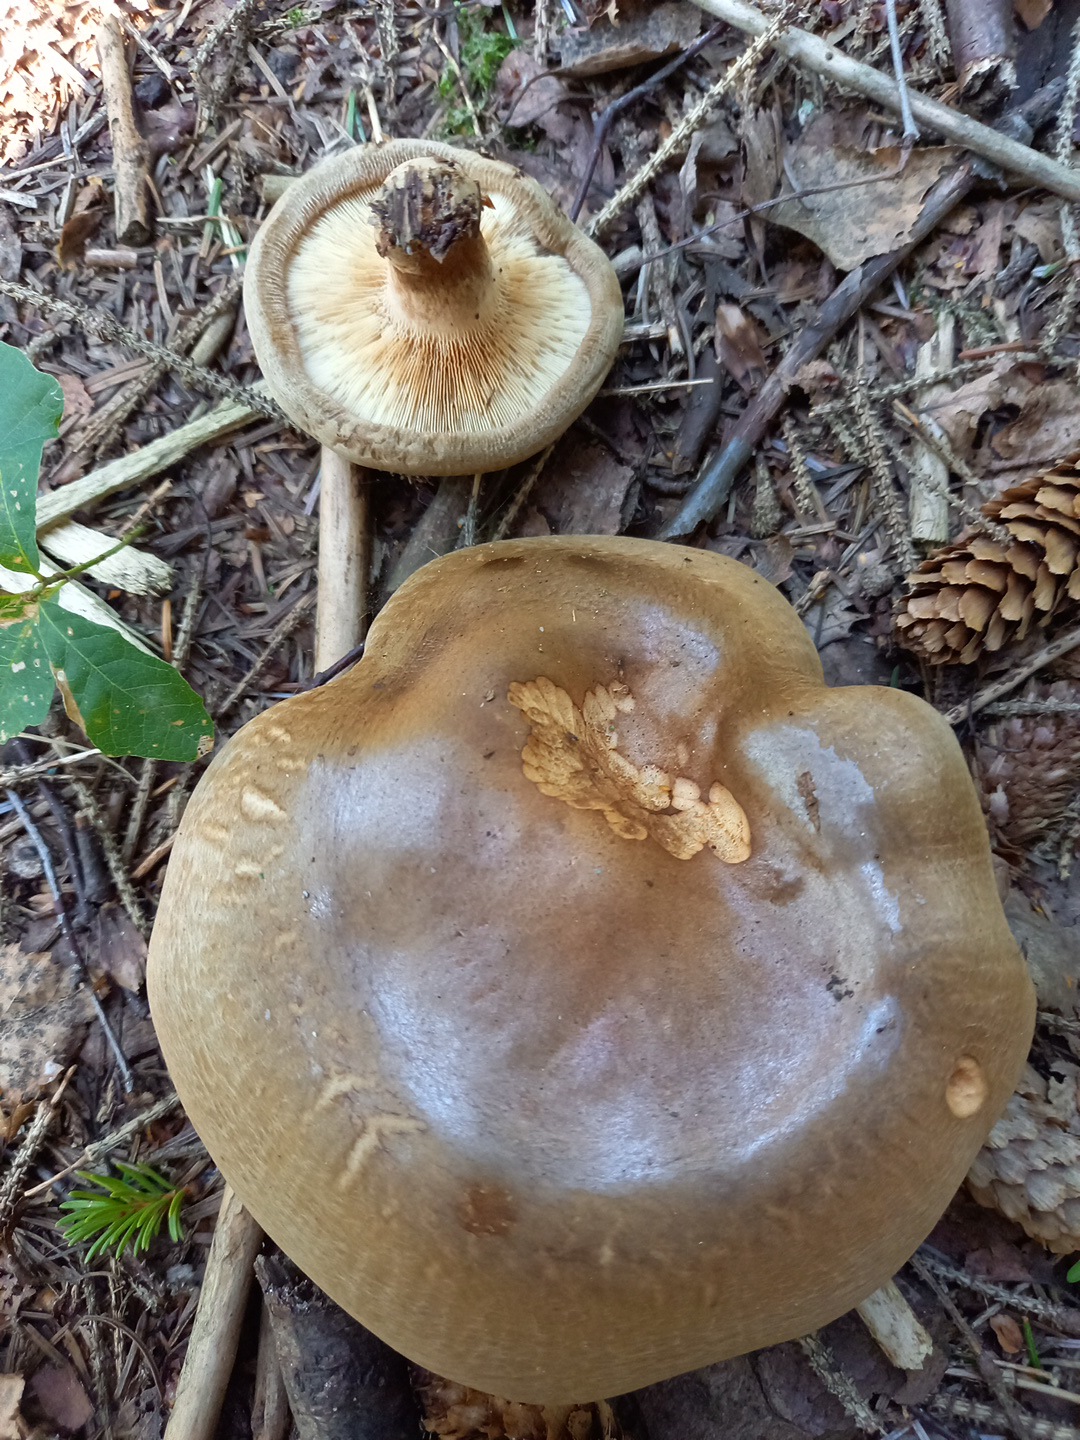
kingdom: Fungi
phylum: Basidiomycota
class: Agaricomycetes
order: Boletales
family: Paxillaceae
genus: Paxillus
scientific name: Paxillus involutus
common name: almindelig netbladhat
